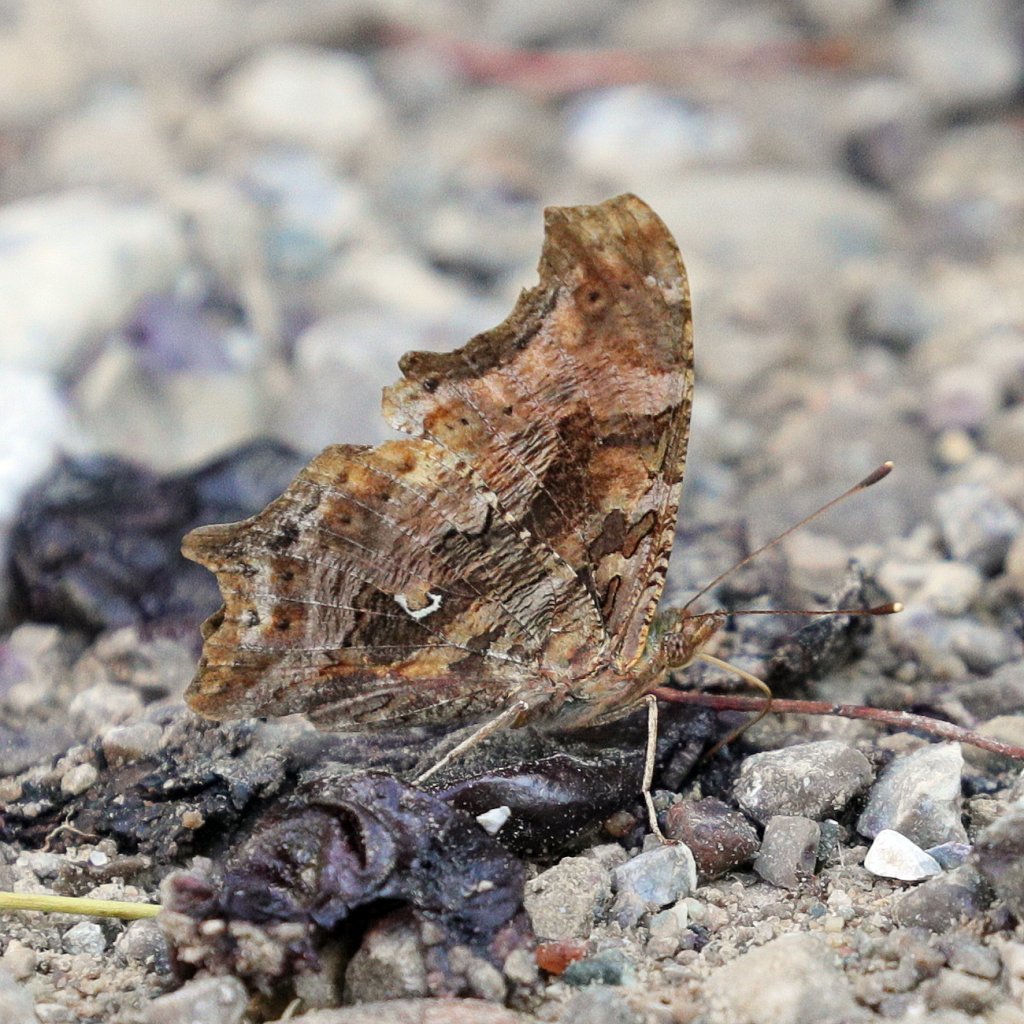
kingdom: Animalia
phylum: Arthropoda
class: Insecta
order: Lepidoptera
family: Nymphalidae
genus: Polygonia
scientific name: Polygonia comma
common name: Eastern Comma
